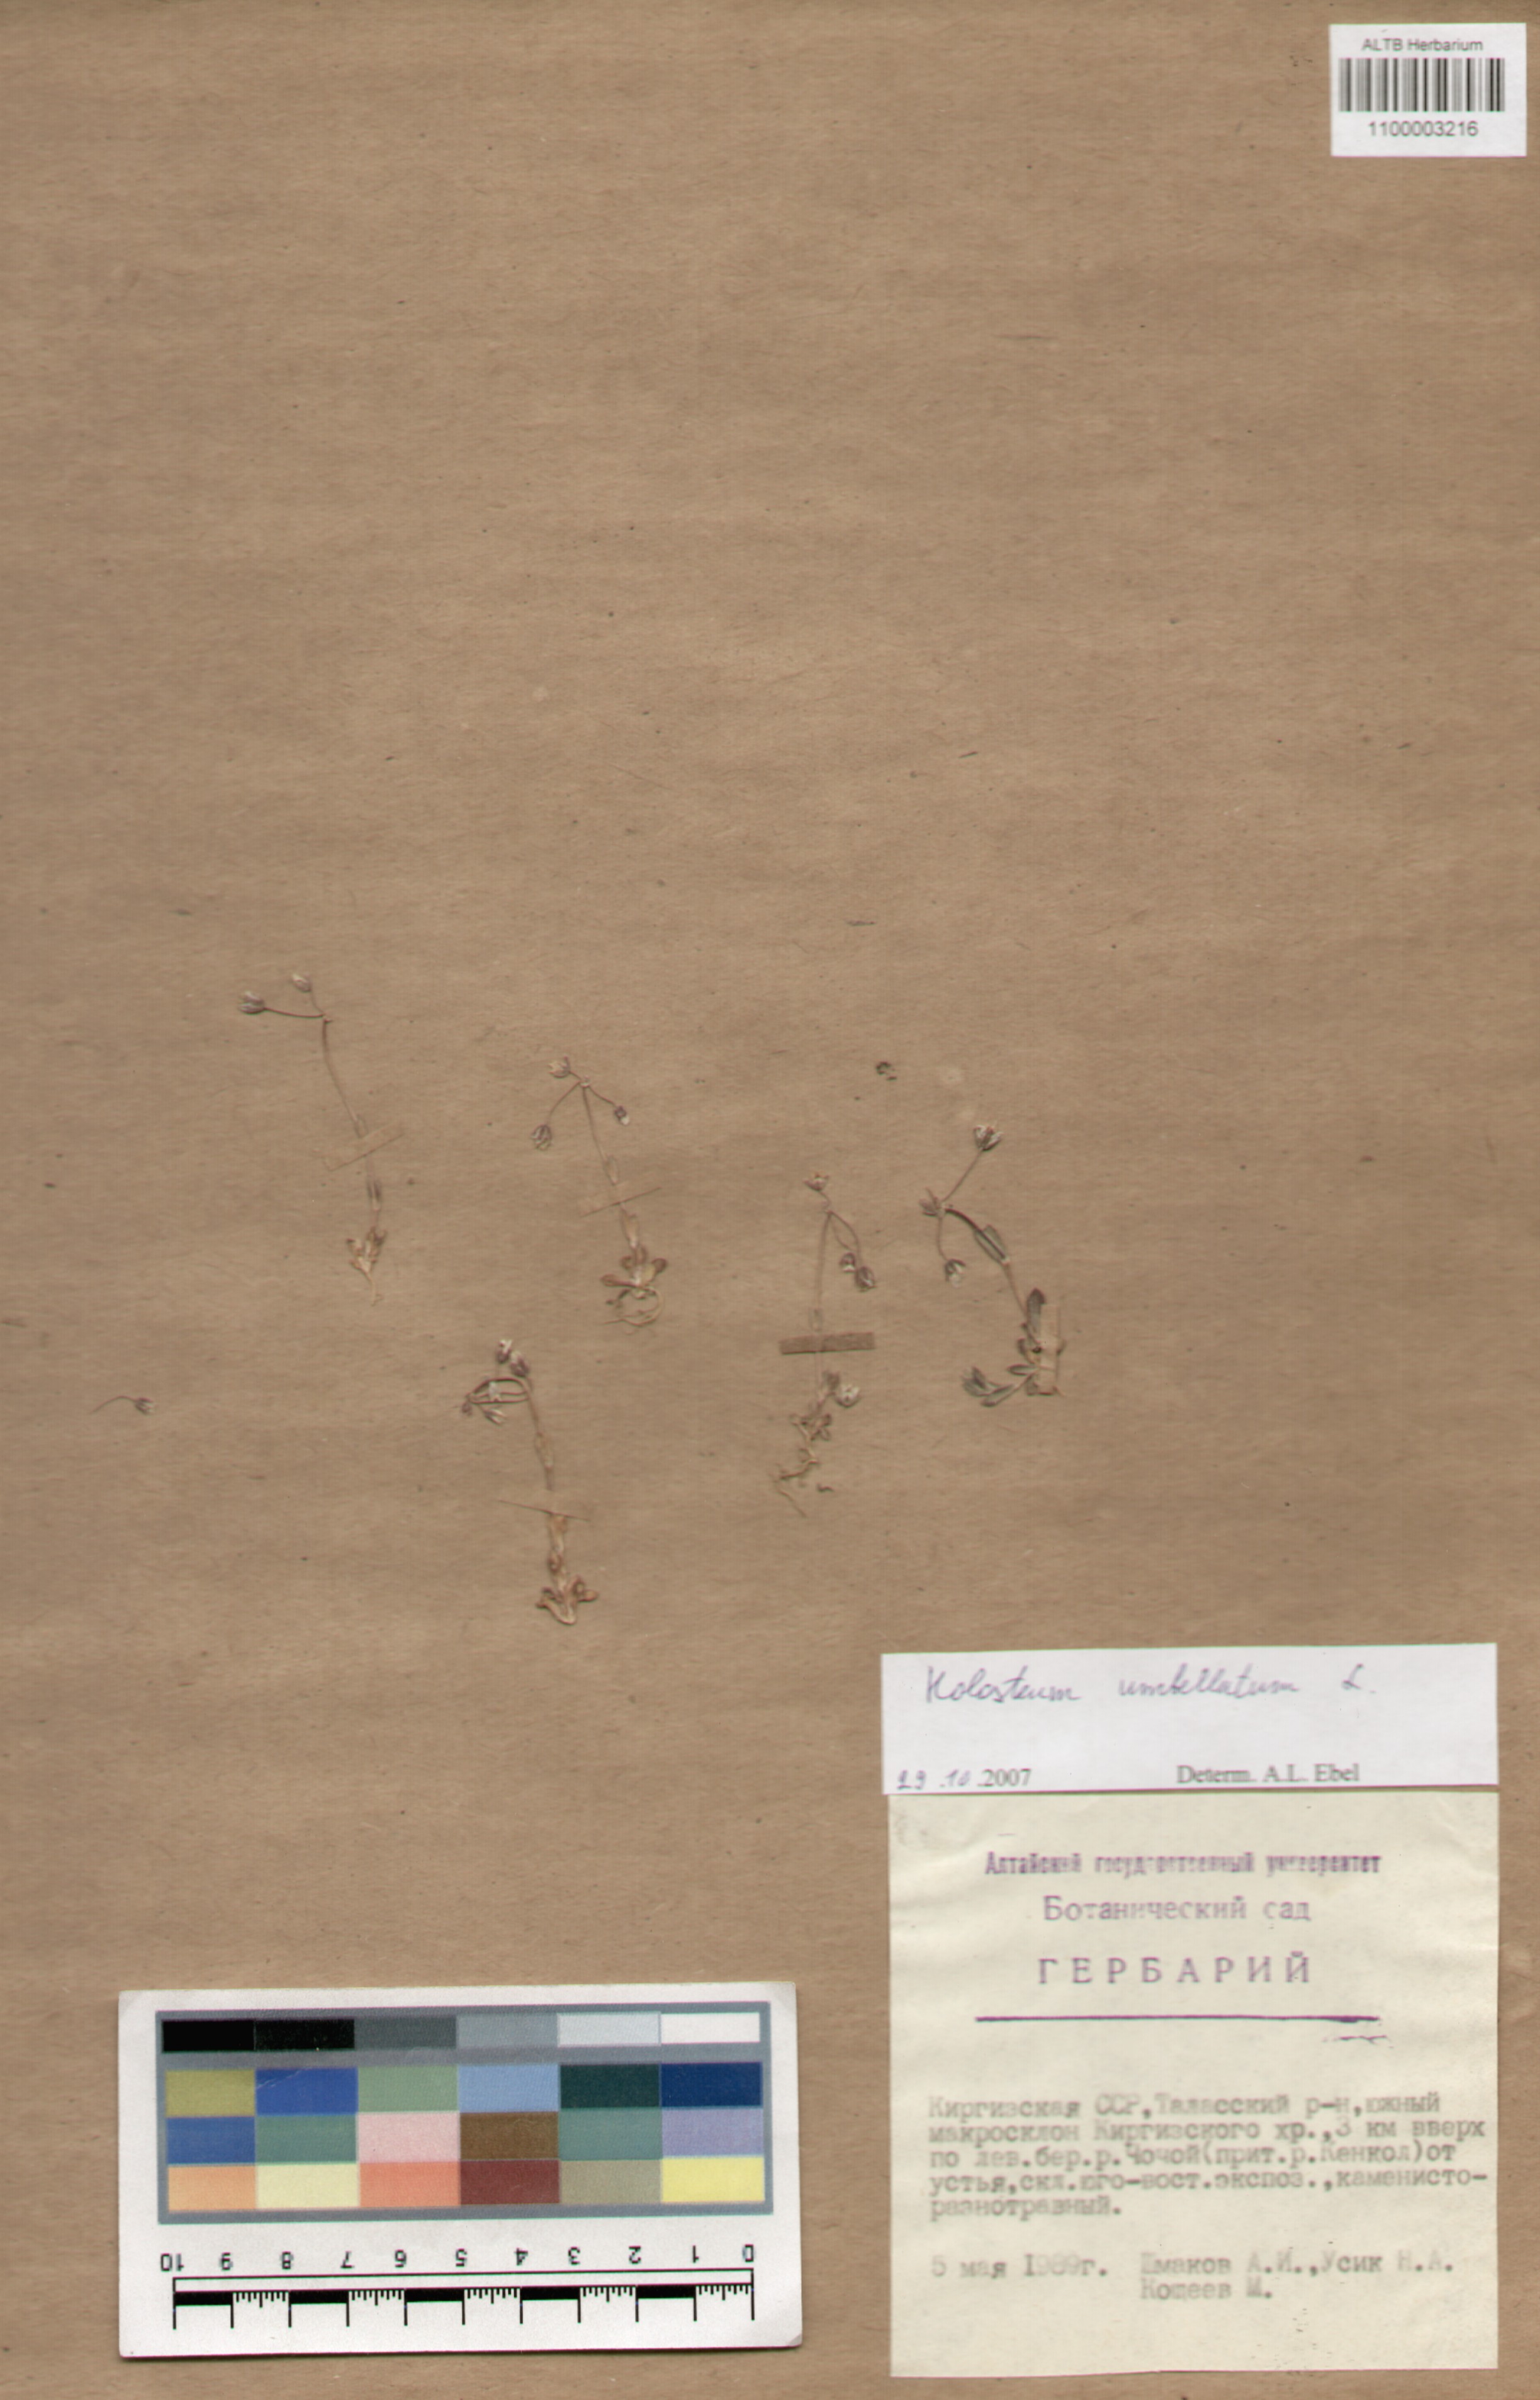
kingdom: Plantae
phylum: Tracheophyta
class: Magnoliopsida
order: Caryophyllales
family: Caryophyllaceae
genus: Holosteum
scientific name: Holosteum umbellatum
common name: Jagged chickweed
